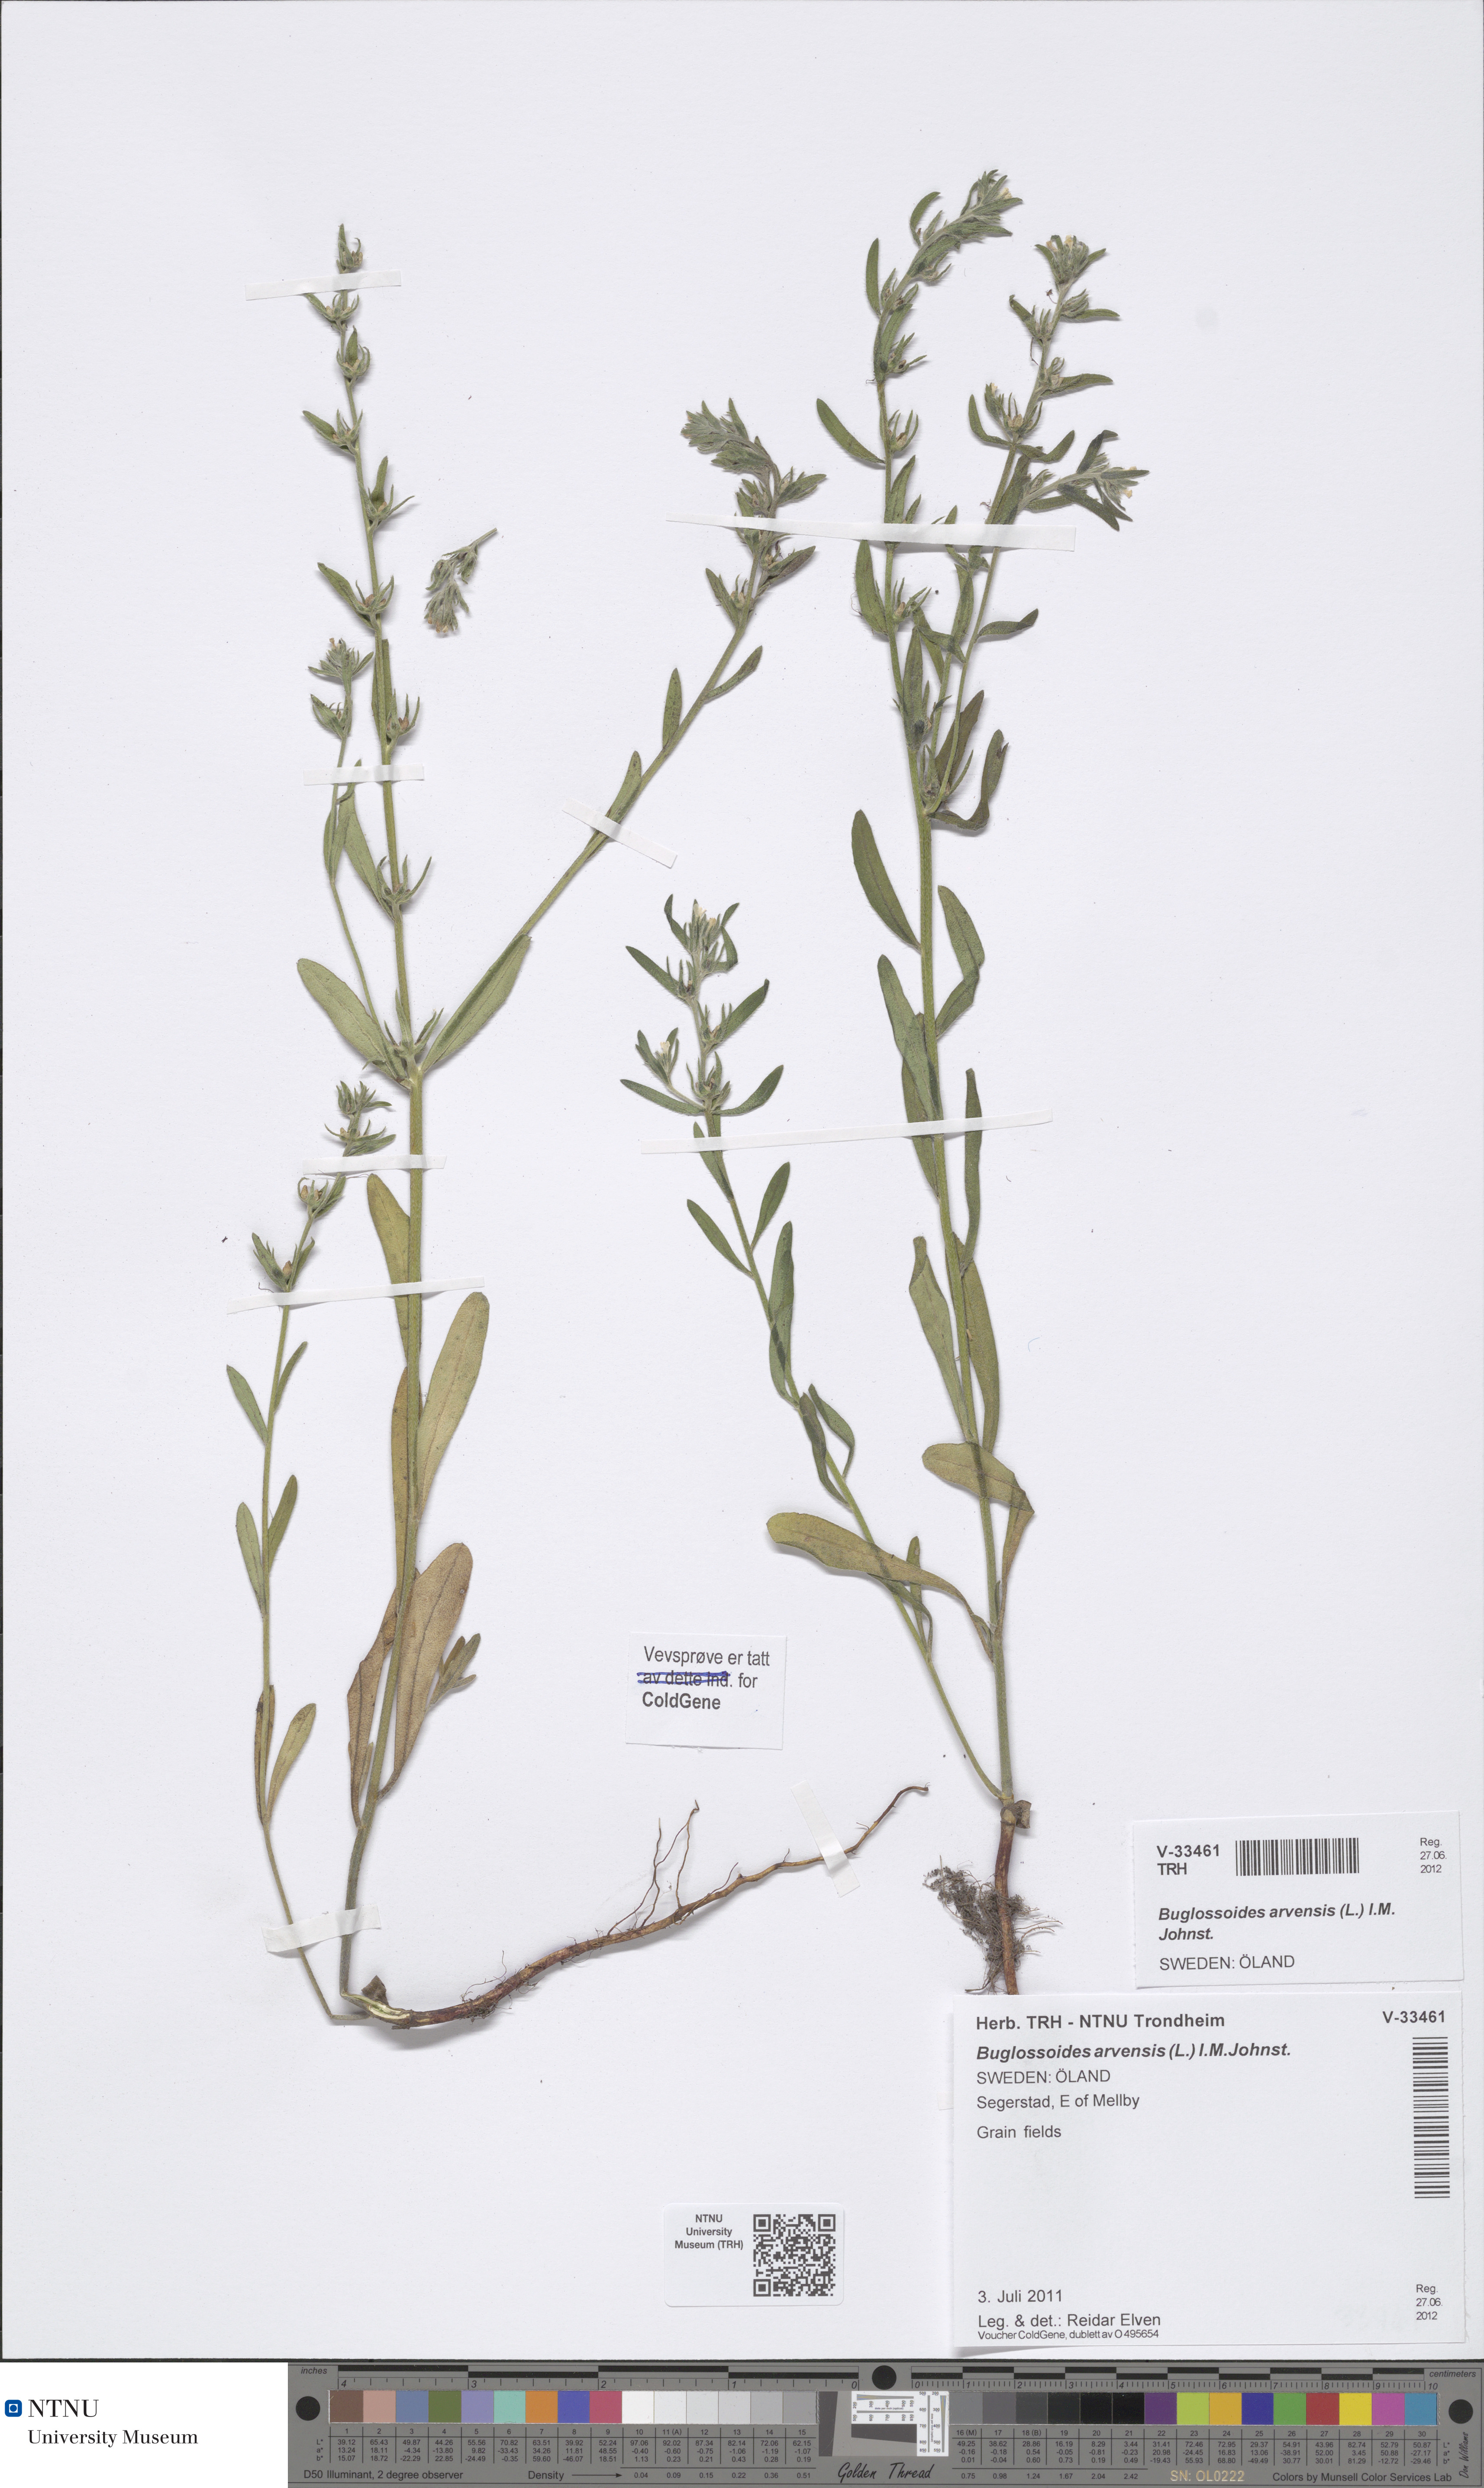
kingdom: Plantae
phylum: Tracheophyta
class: Magnoliopsida
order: Boraginales
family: Boraginaceae
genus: Buglossoides
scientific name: Buglossoides arvensis
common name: Corn gromwell
